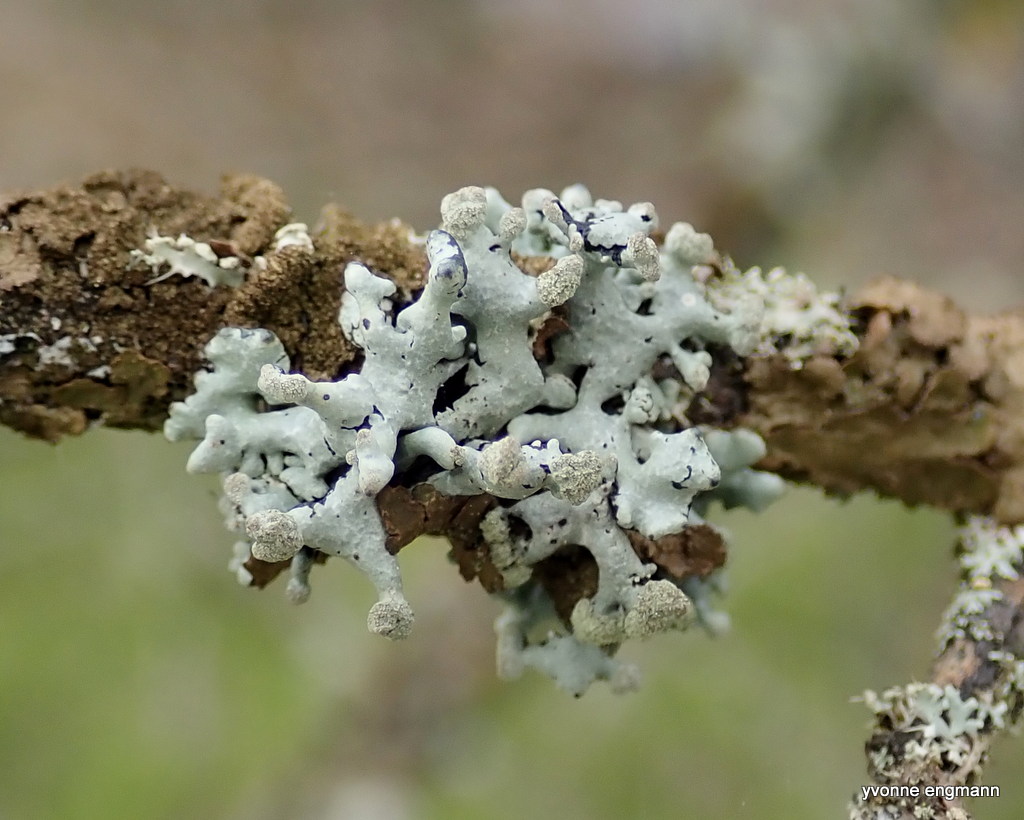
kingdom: Fungi
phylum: Ascomycota
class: Lecanoromycetes
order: Lecanorales
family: Parmeliaceae
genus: Hypogymnia
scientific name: Hypogymnia tubulosa
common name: finger-kvistlav
